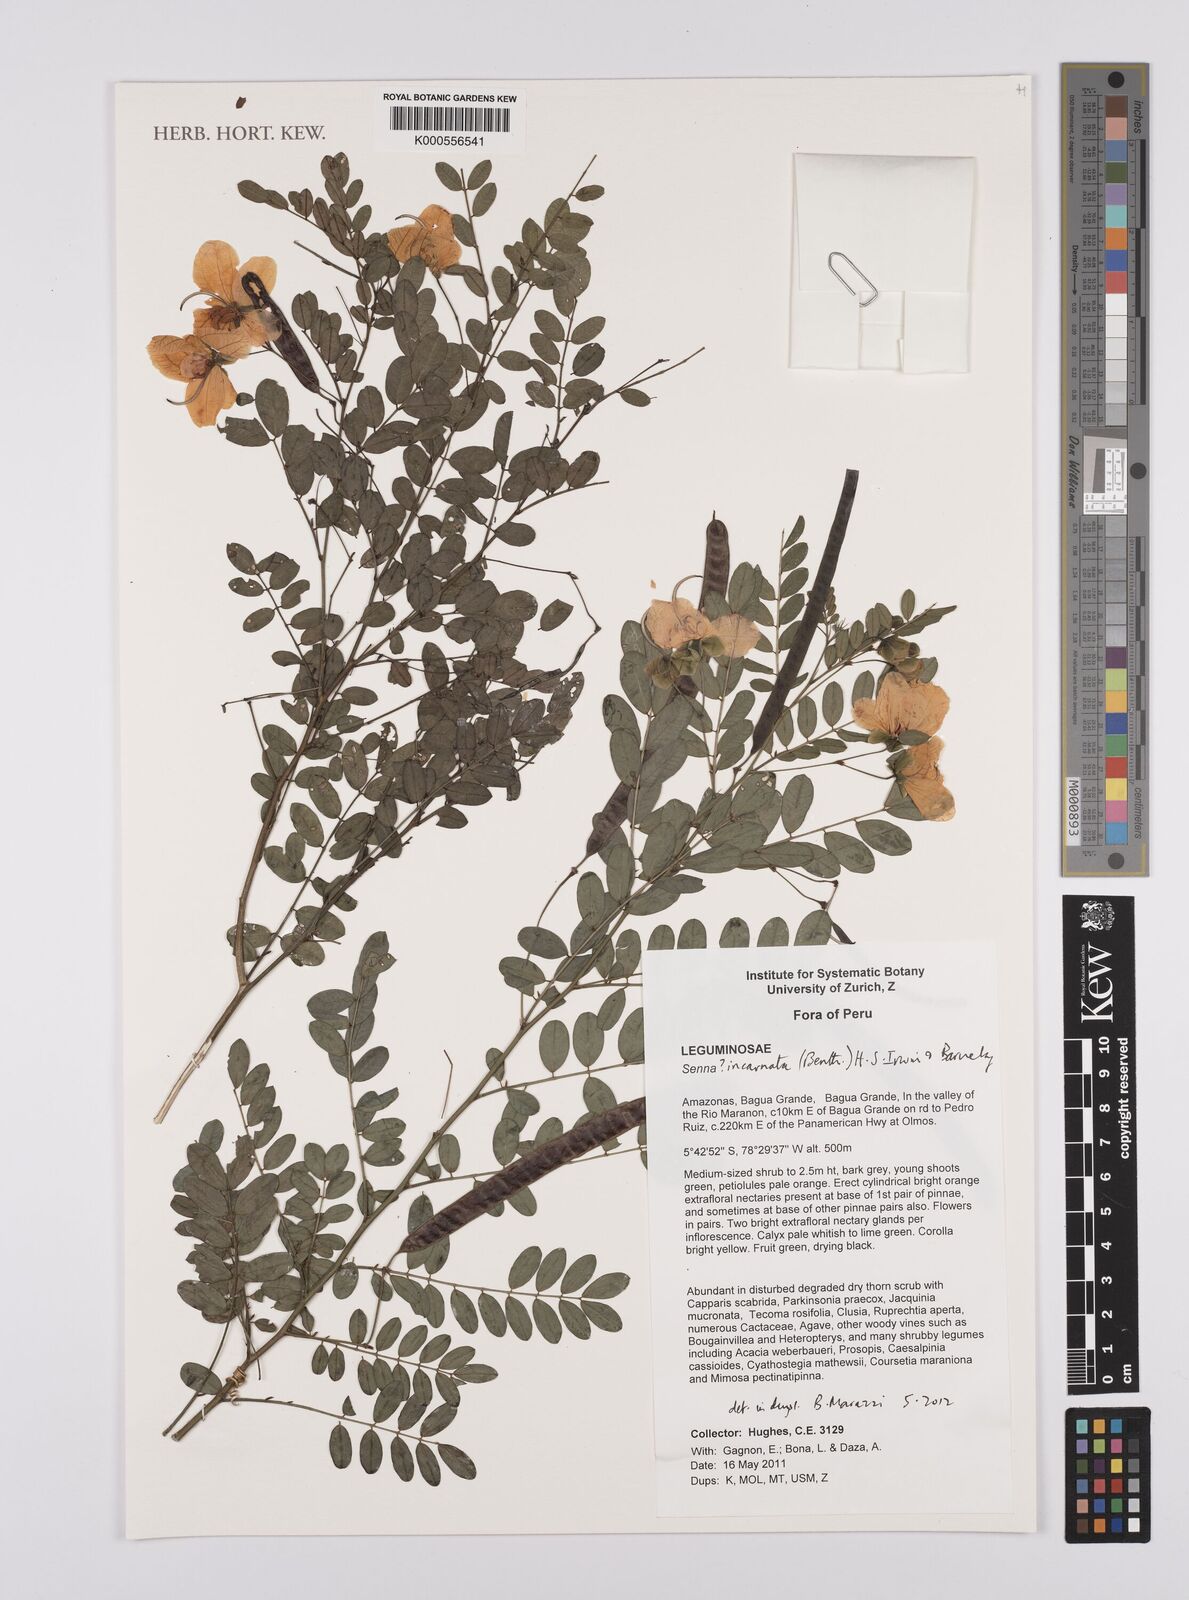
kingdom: Plantae
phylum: Tracheophyta
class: Magnoliopsida
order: Fabales
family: Fabaceae
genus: Senna
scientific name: Senna incarnata
